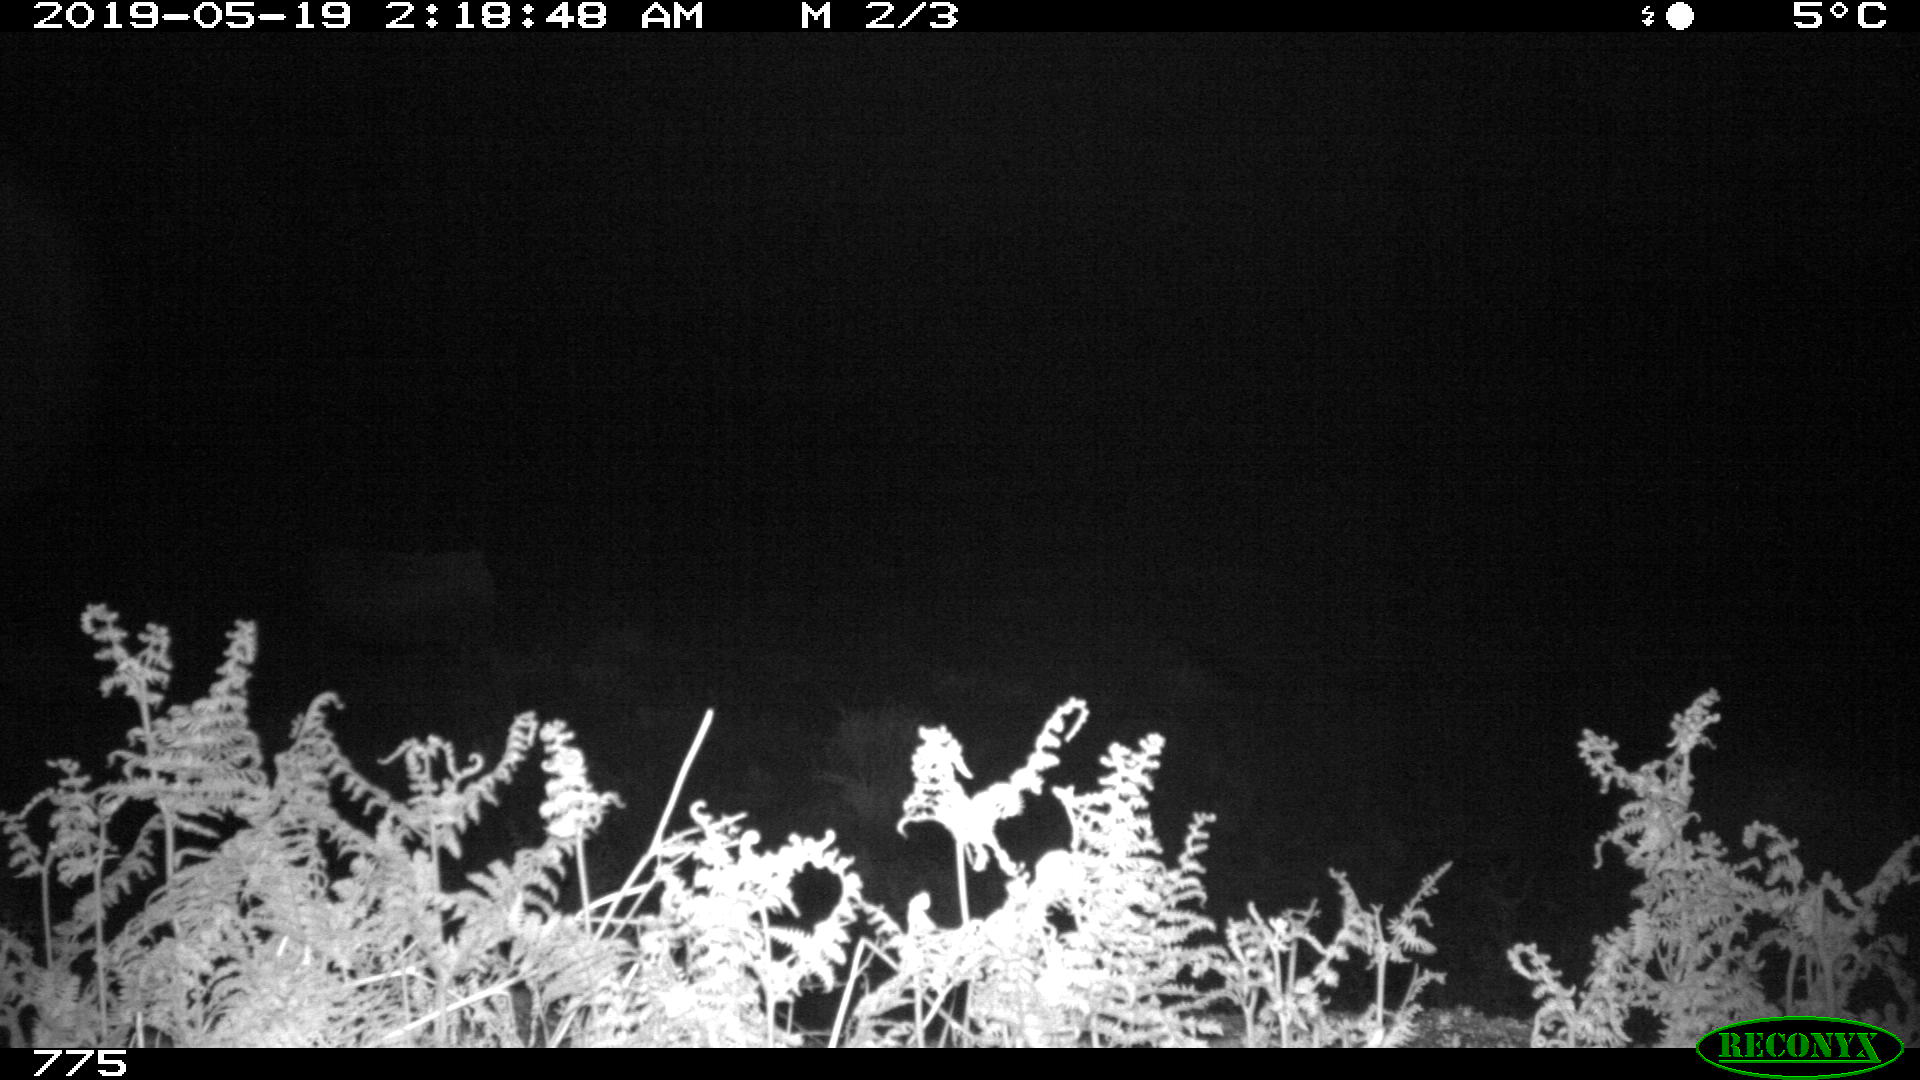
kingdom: Animalia
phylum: Chordata
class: Mammalia
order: Artiodactyla
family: Bovidae
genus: Bos
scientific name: Bos taurus
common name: Domesticated cattle
